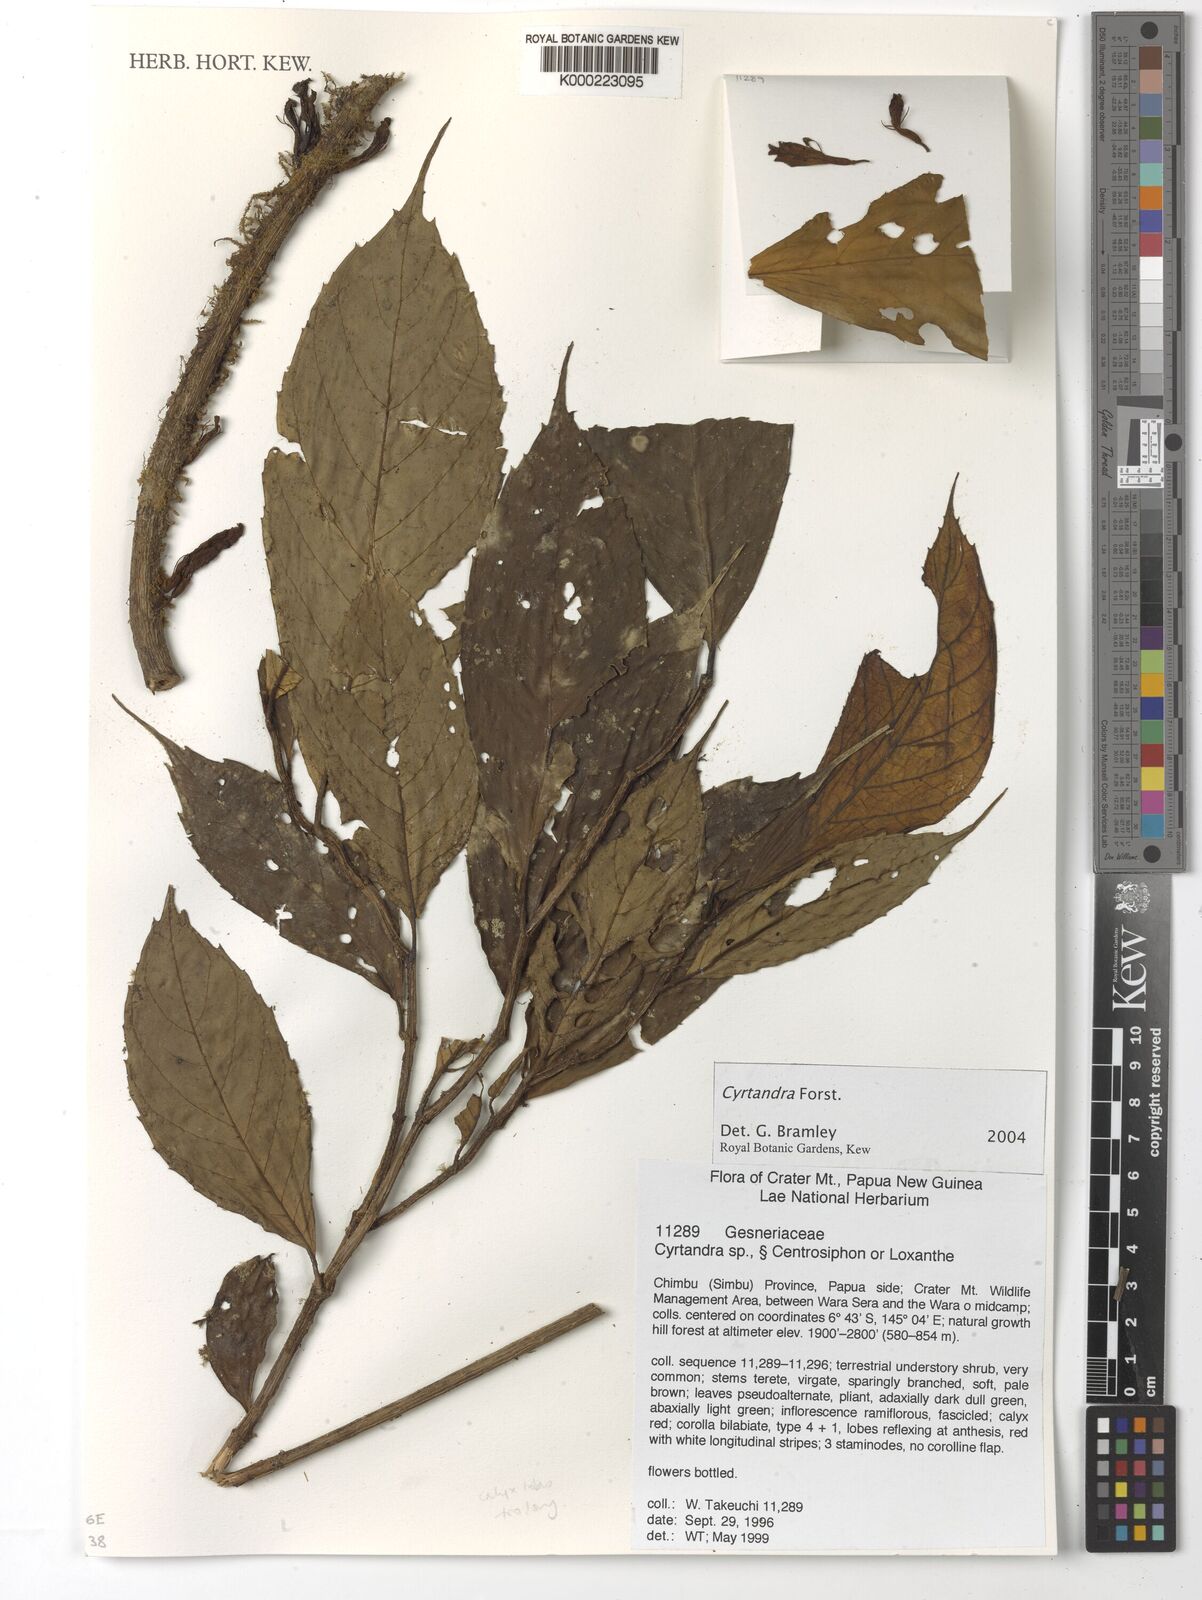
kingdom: Plantae
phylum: Tracheophyta
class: Magnoliopsida
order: Lamiales
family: Gesneriaceae
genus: Cyrtandra
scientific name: Cyrtandra
